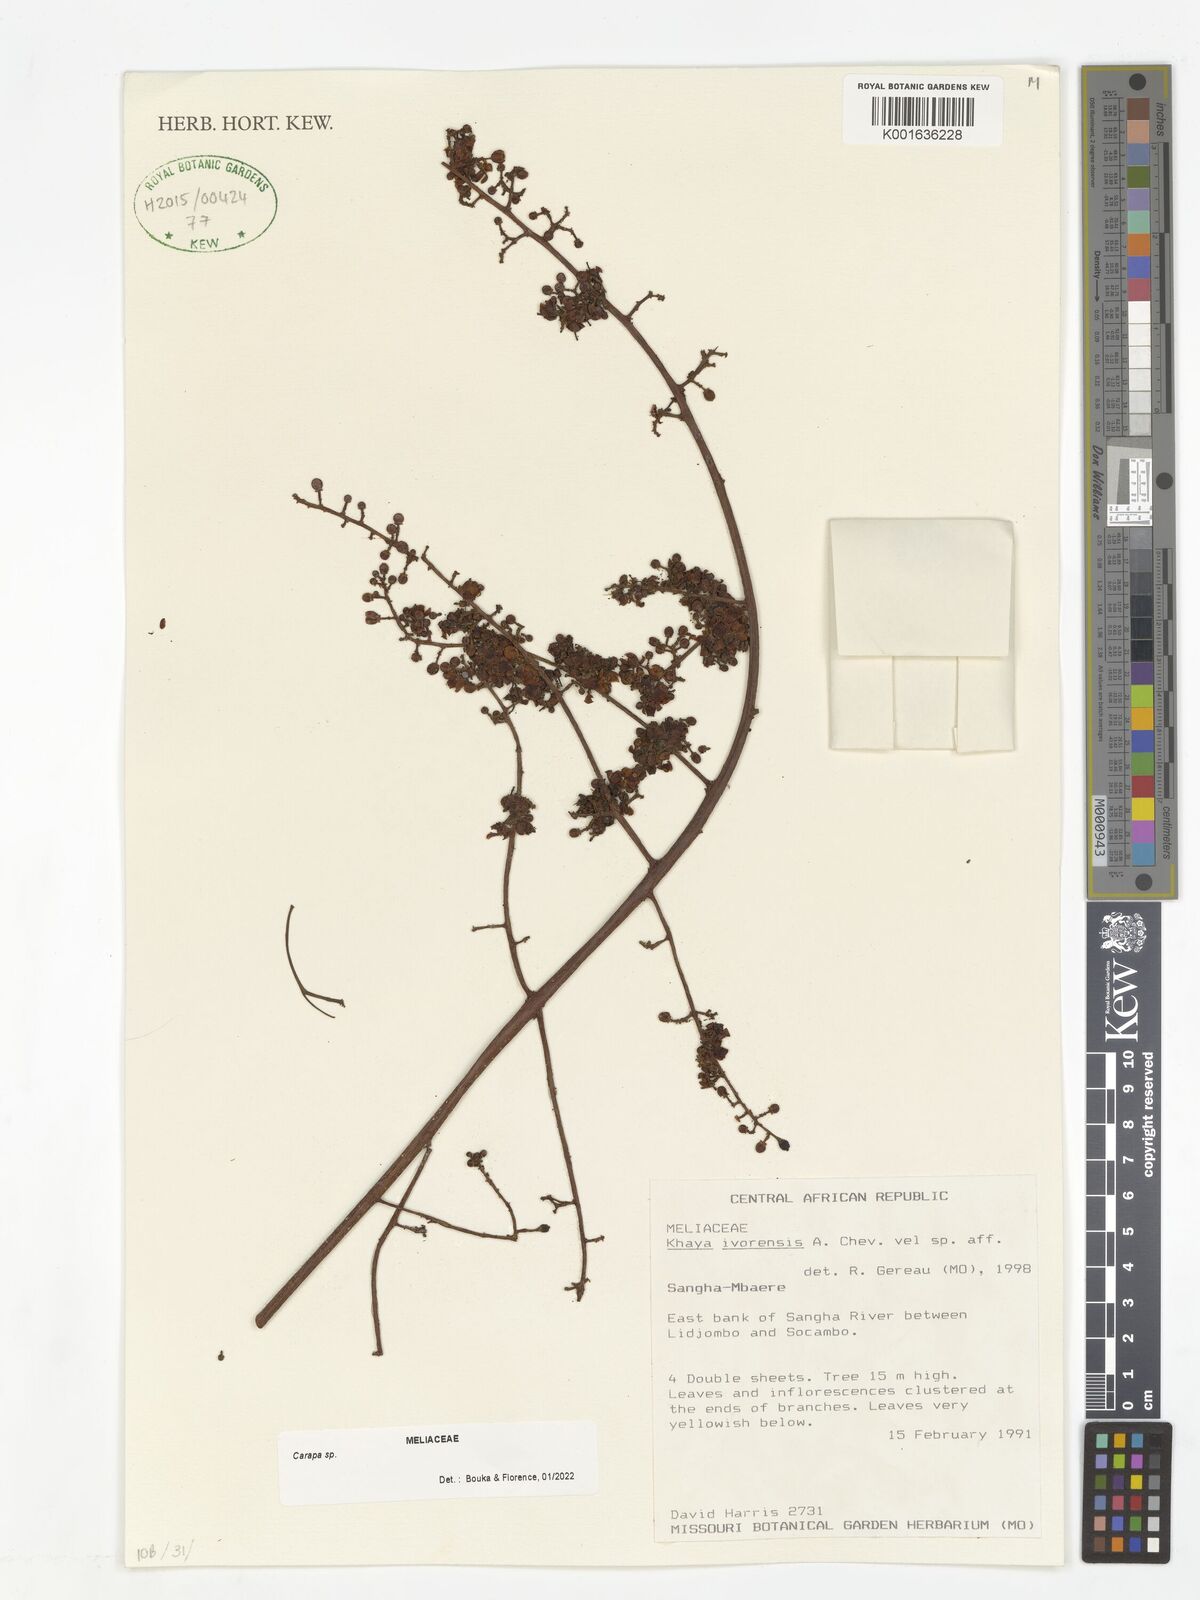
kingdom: Plantae
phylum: Tracheophyta
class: Magnoliopsida
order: Sapindales
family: Meliaceae
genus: Carapa
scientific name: Carapa
